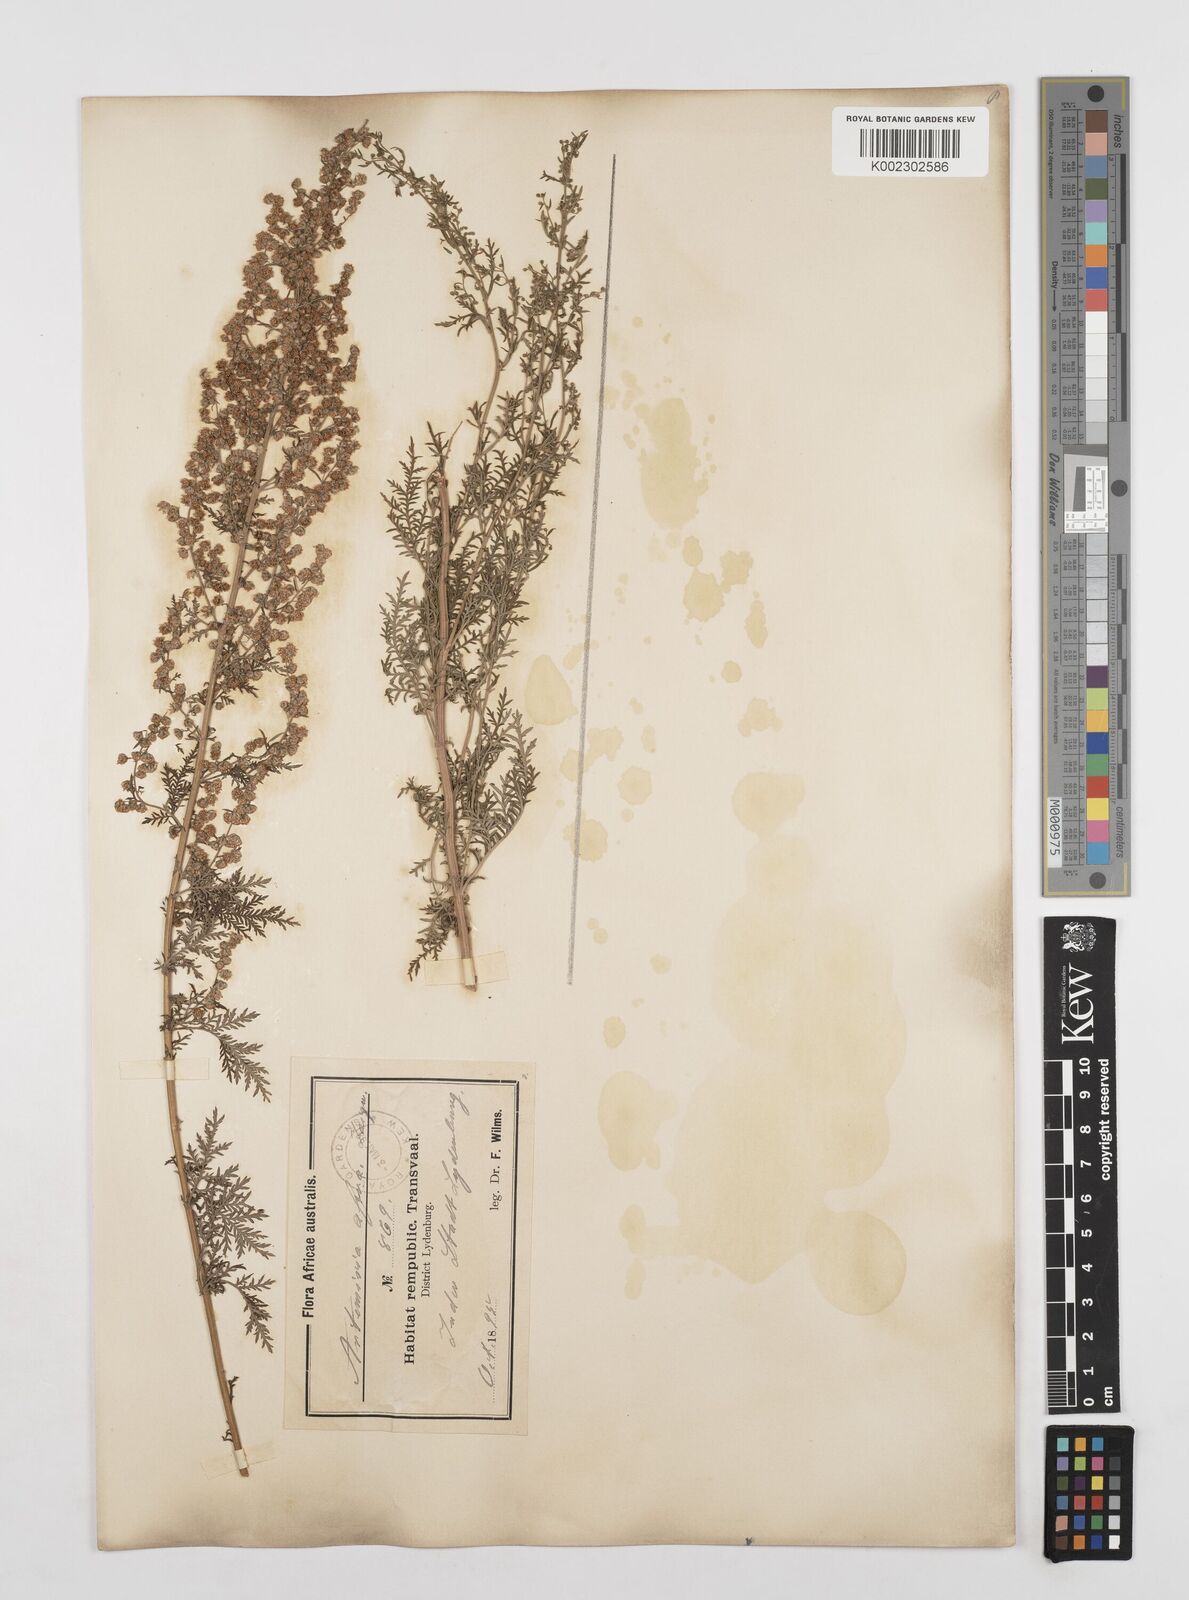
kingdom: Plantae
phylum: Tracheophyta
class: Magnoliopsida
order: Asterales
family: Asteraceae
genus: Artemisia
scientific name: Artemisia afra
